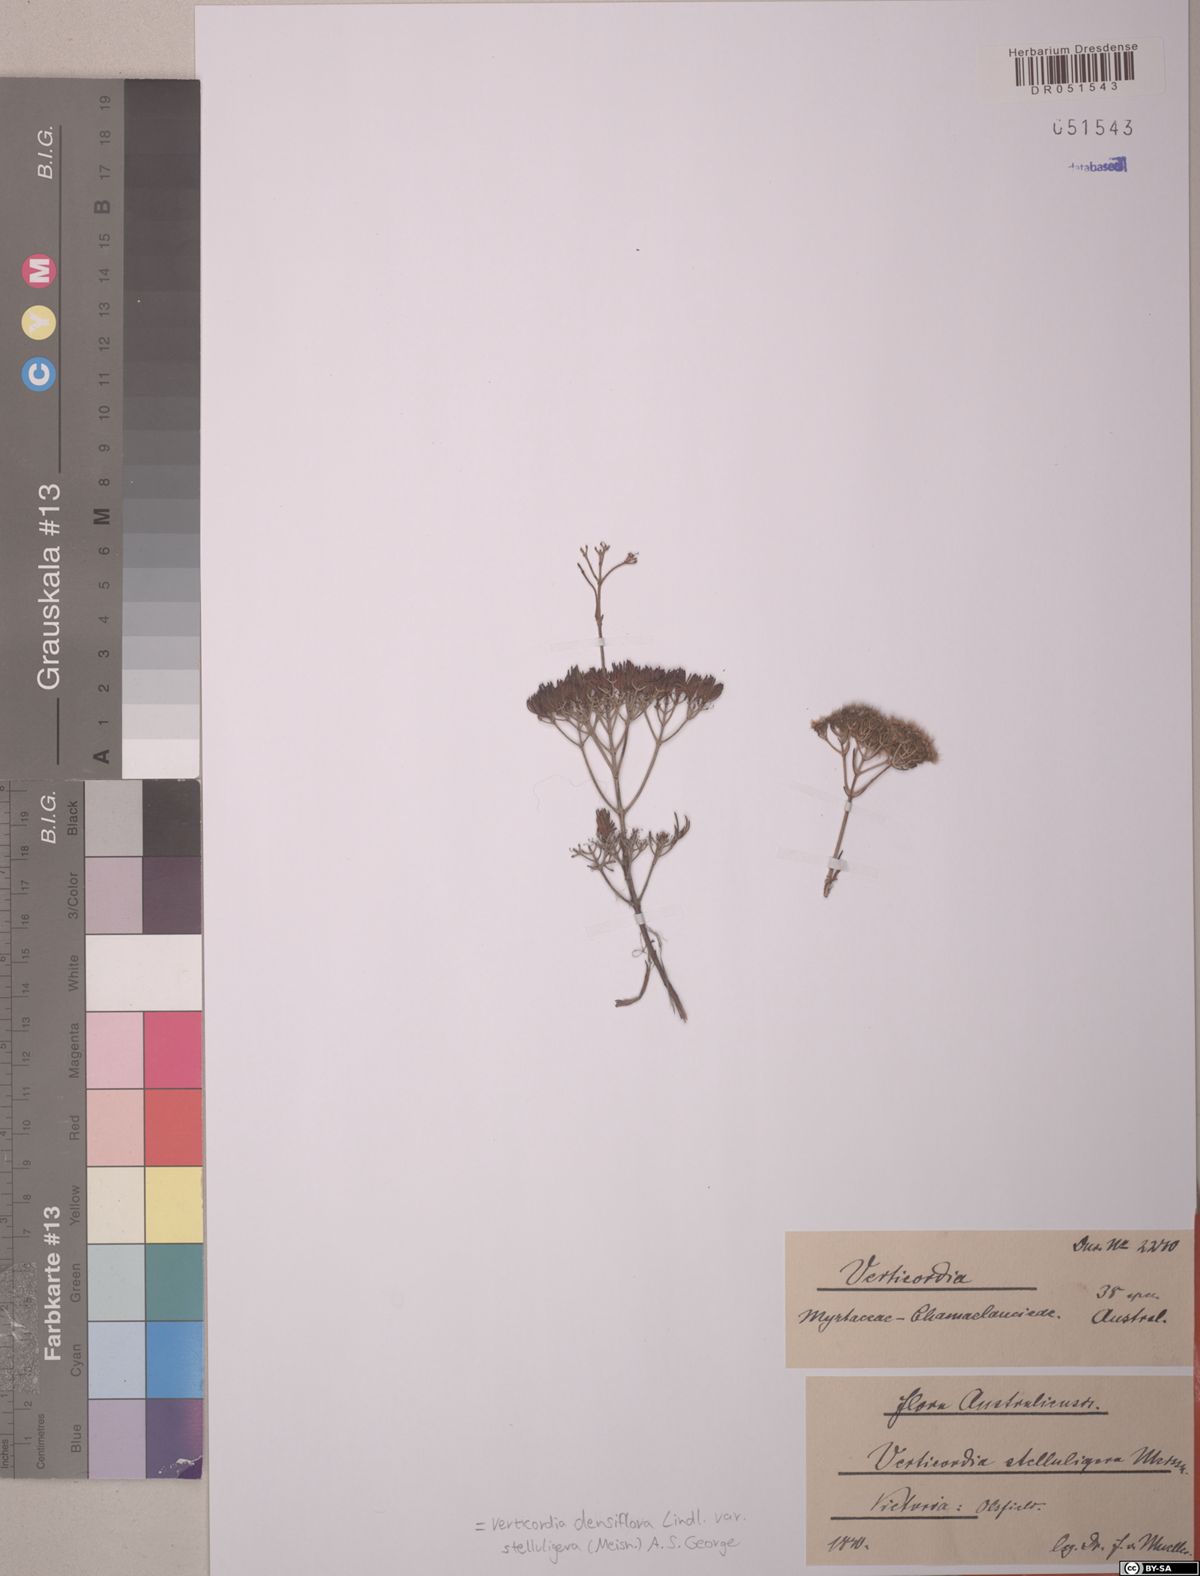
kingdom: Plantae
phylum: Tracheophyta
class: Magnoliopsida
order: Myrtales
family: Myrtaceae
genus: Verticordia
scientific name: Verticordia densiflora
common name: Compact feather-flower
